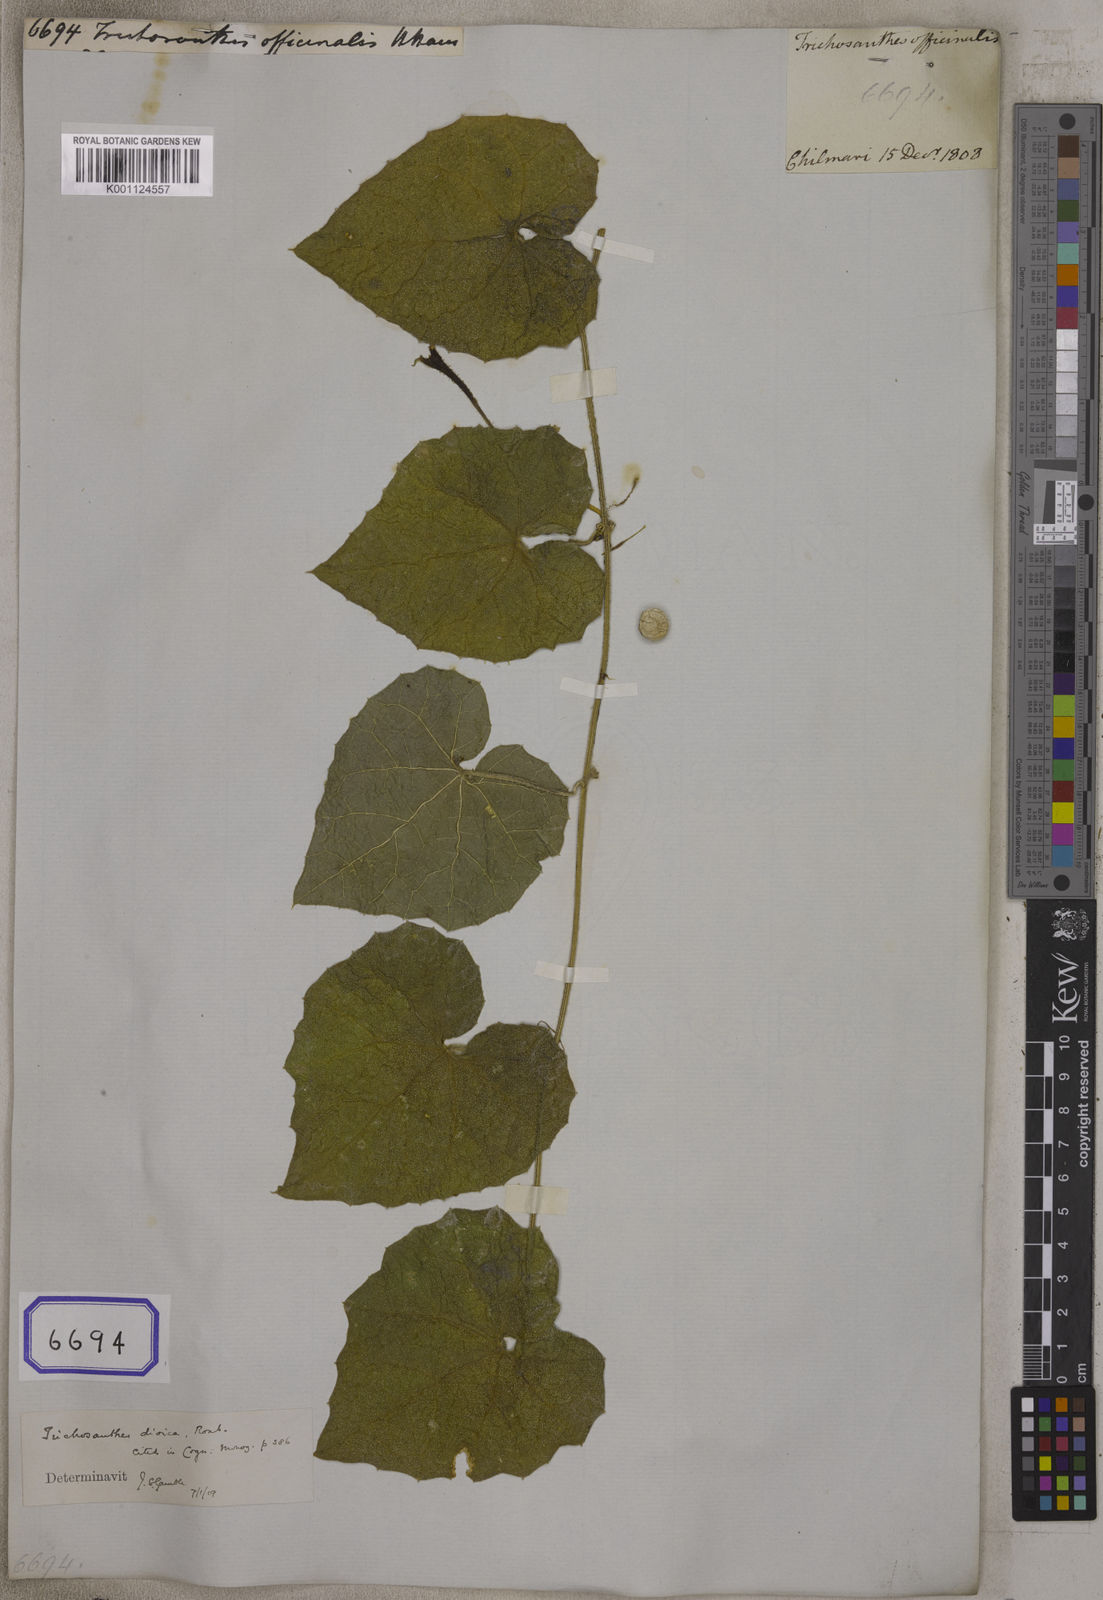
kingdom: Plantae
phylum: Tracheophyta
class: Magnoliopsida
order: Cucurbitales
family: Cucurbitaceae
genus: Trichosanthes
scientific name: Trichosanthes
